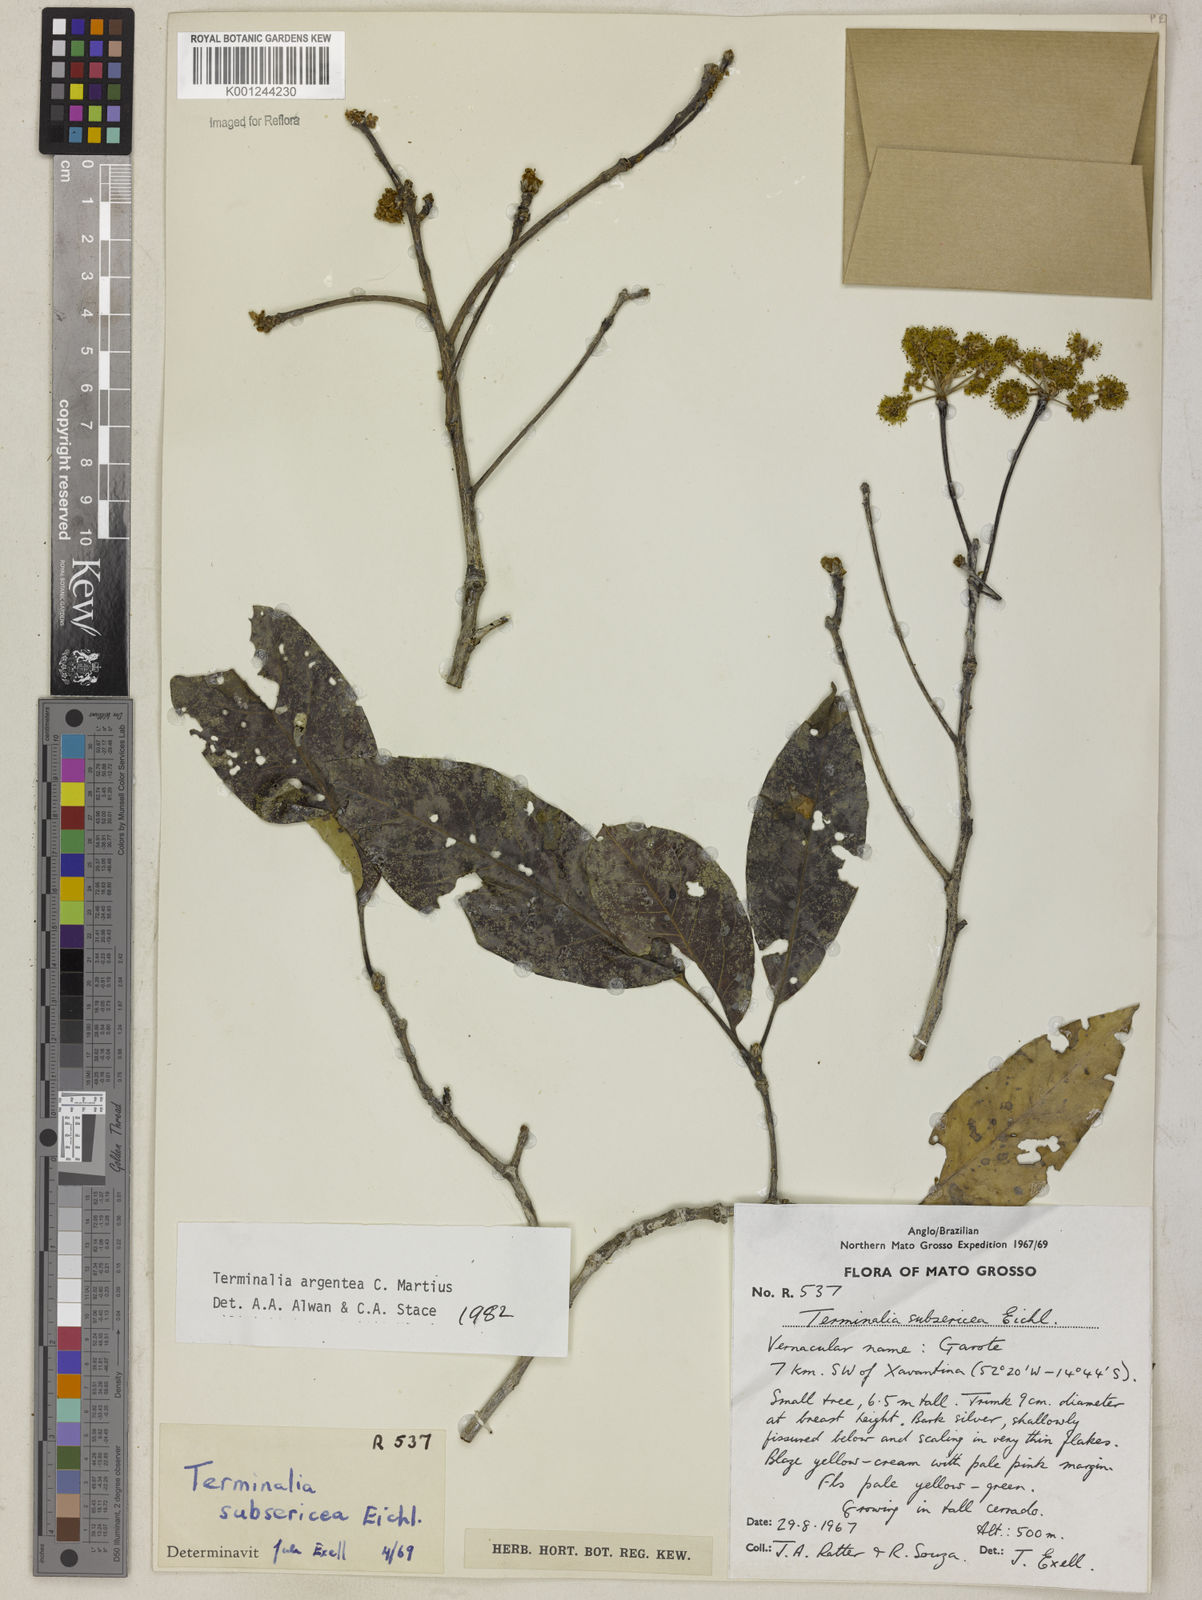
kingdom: Plantae
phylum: Tracheophyta
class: Magnoliopsida
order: Myrtales
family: Combretaceae
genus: Terminalia
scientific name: Terminalia argentea
